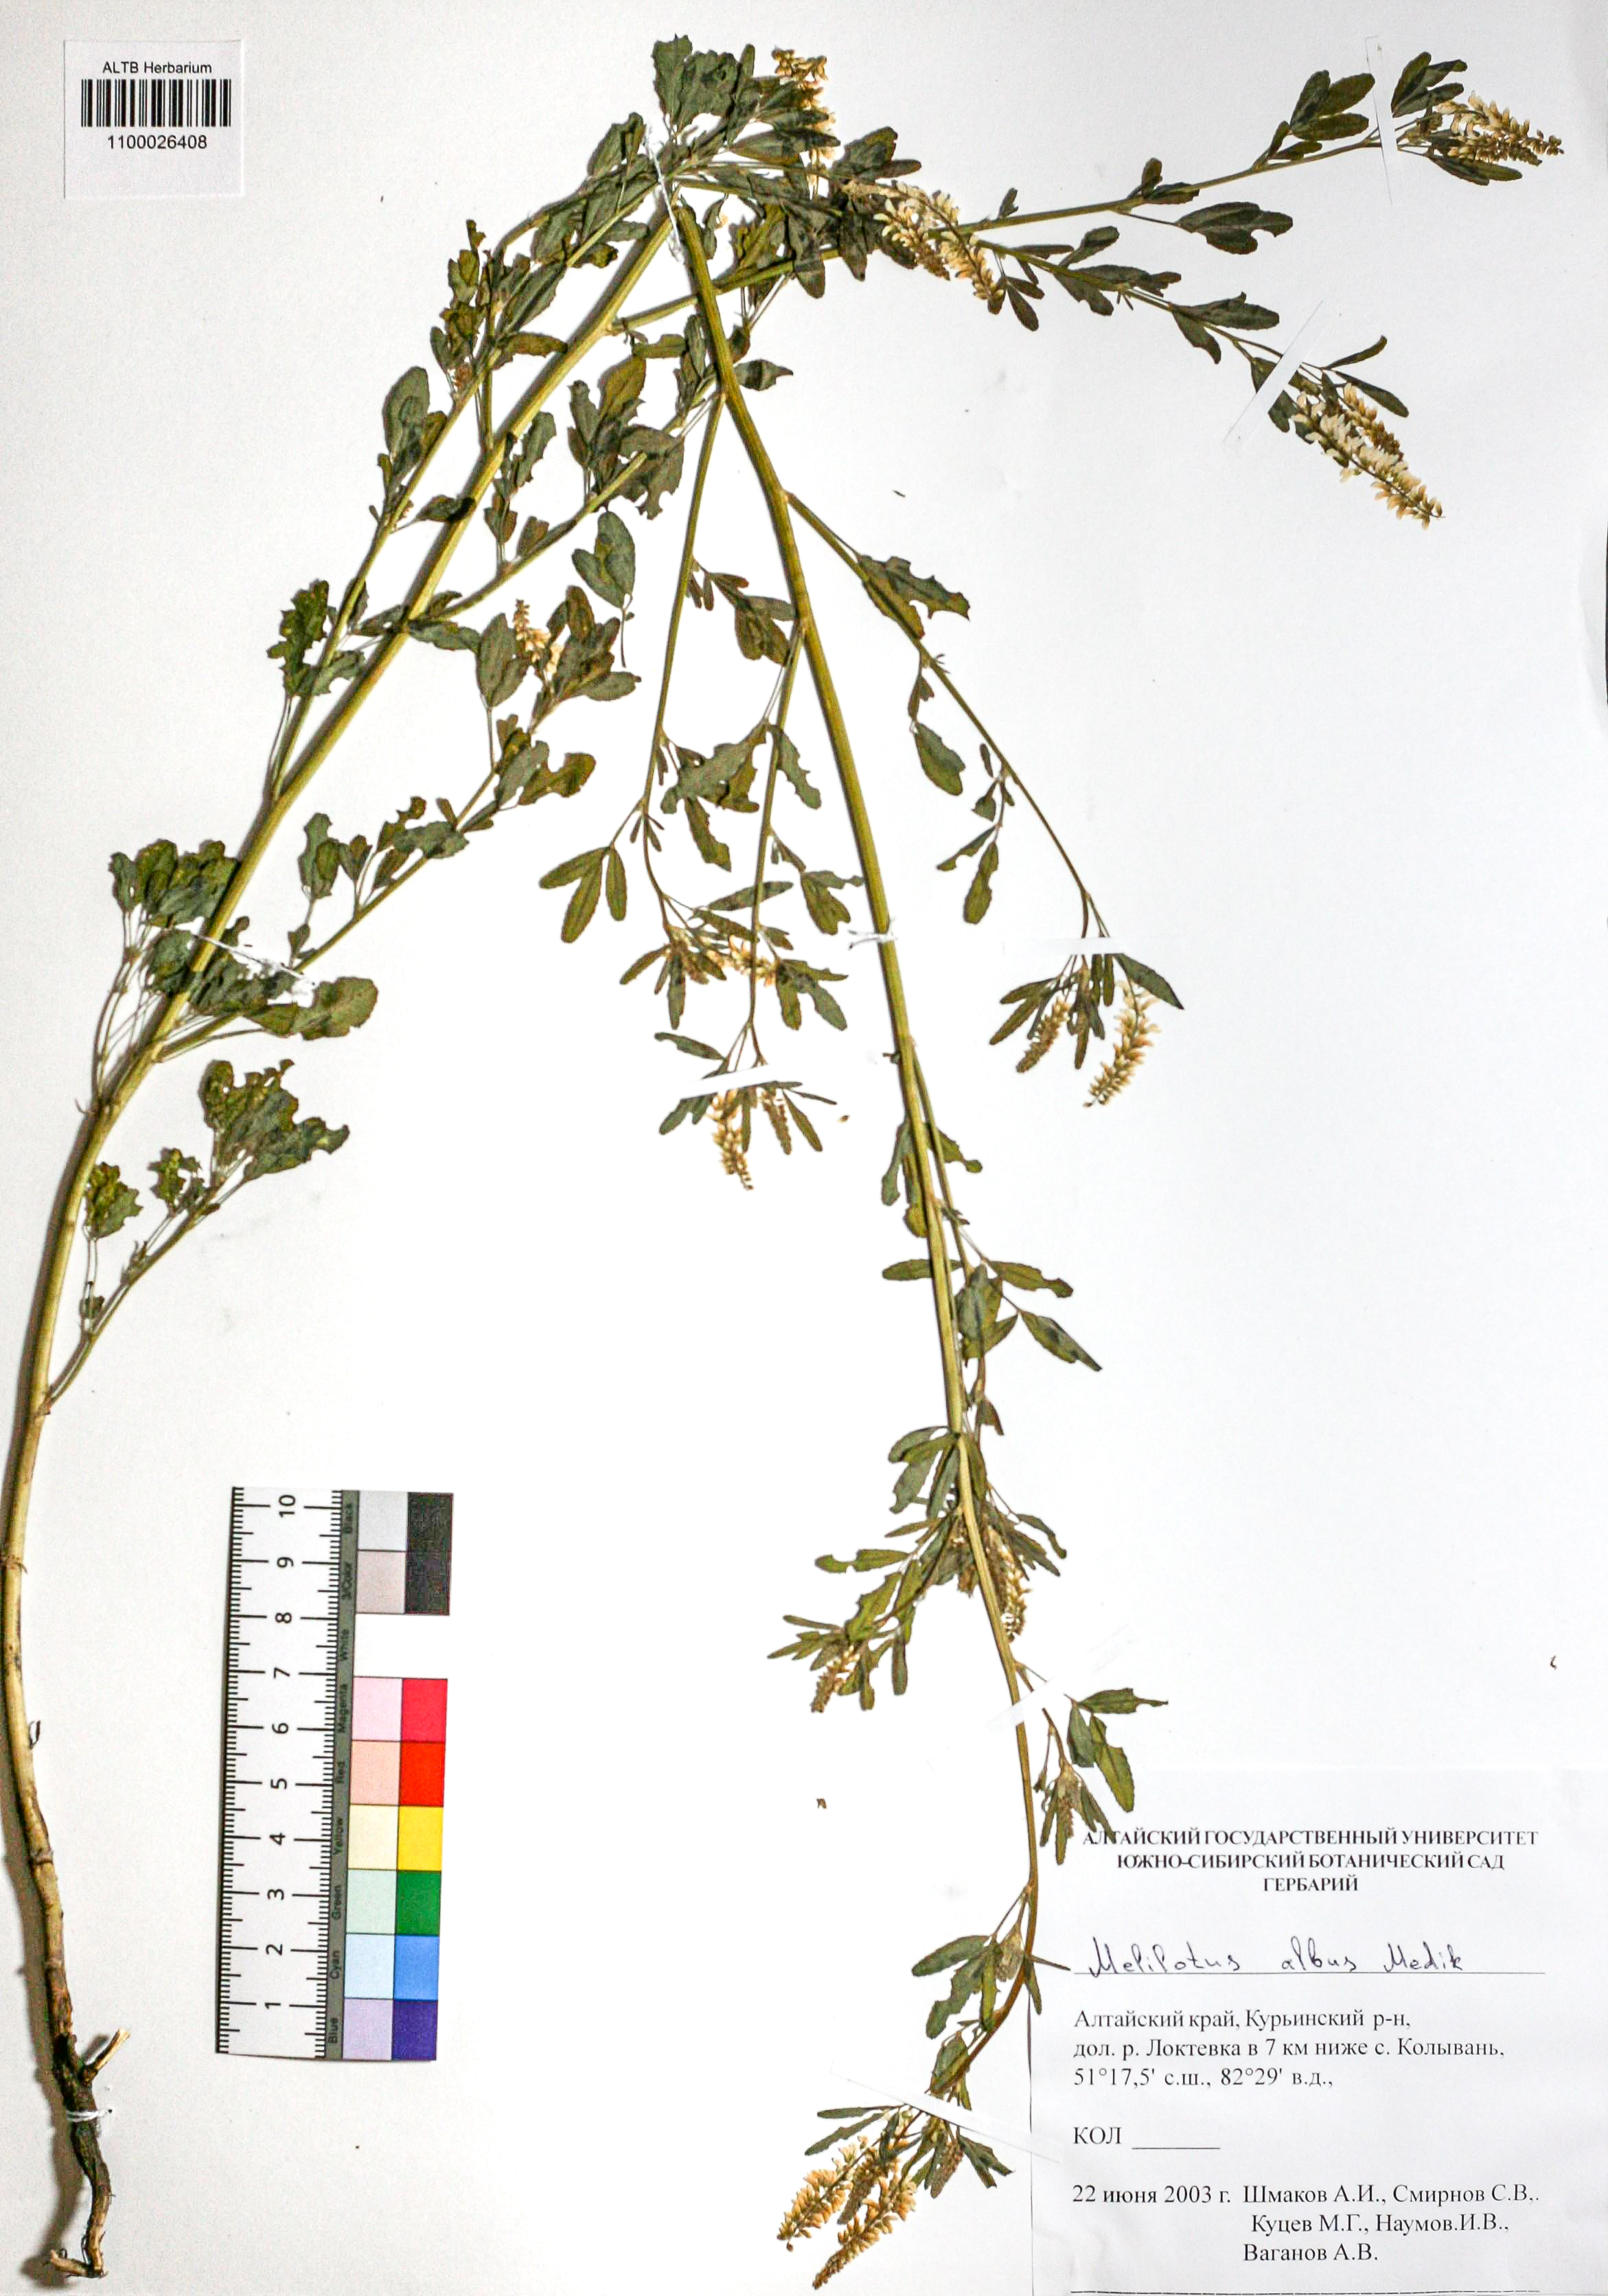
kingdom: Plantae
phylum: Tracheophyta
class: Magnoliopsida
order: Fabales
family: Fabaceae
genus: Melilotus
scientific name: Melilotus albus
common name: White melilot
